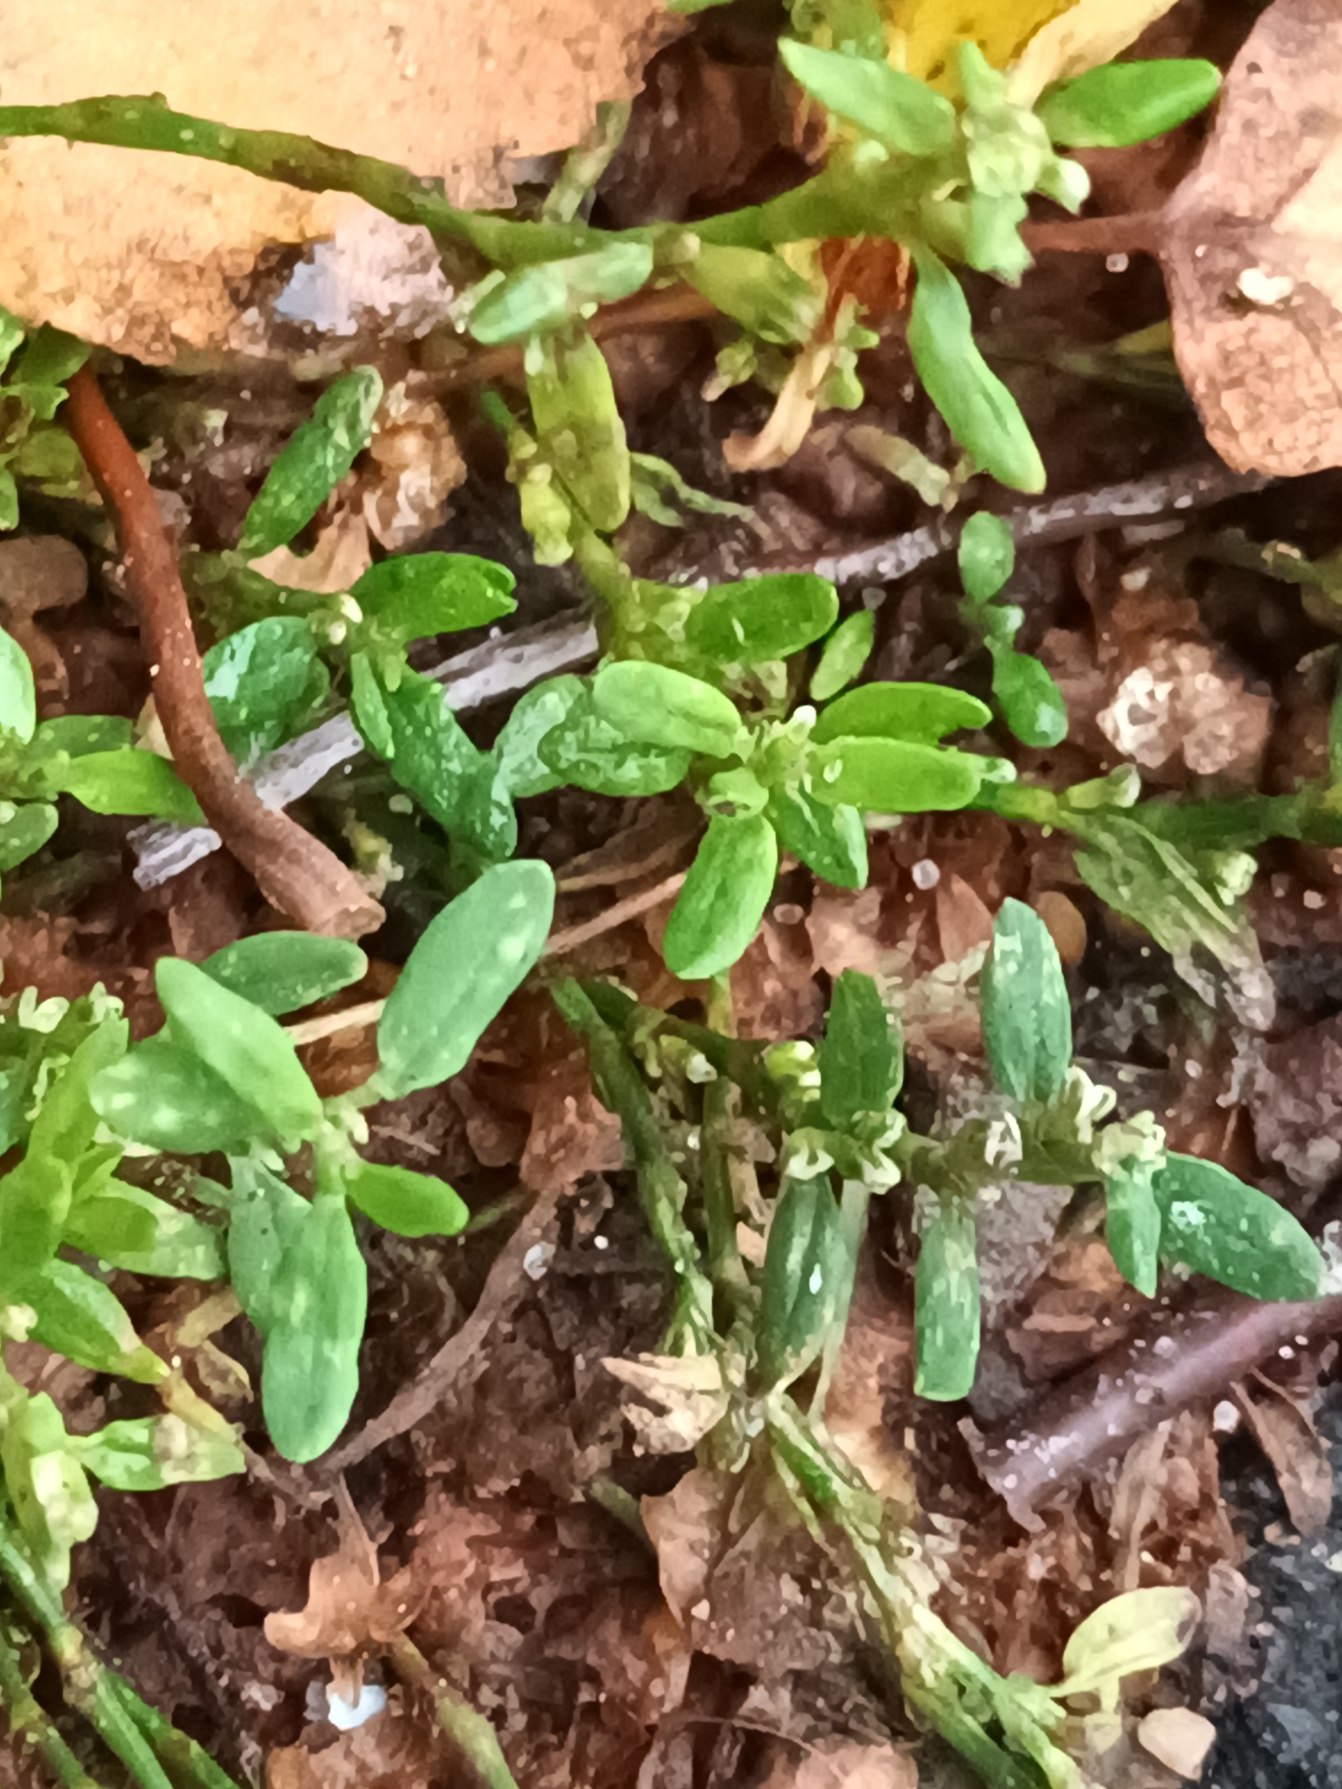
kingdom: Plantae
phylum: Tracheophyta
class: Magnoliopsida
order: Caryophyllales
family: Polygonaceae
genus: Polygonum
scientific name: Polygonum arenastrum
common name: Liggende vej-pileurt
